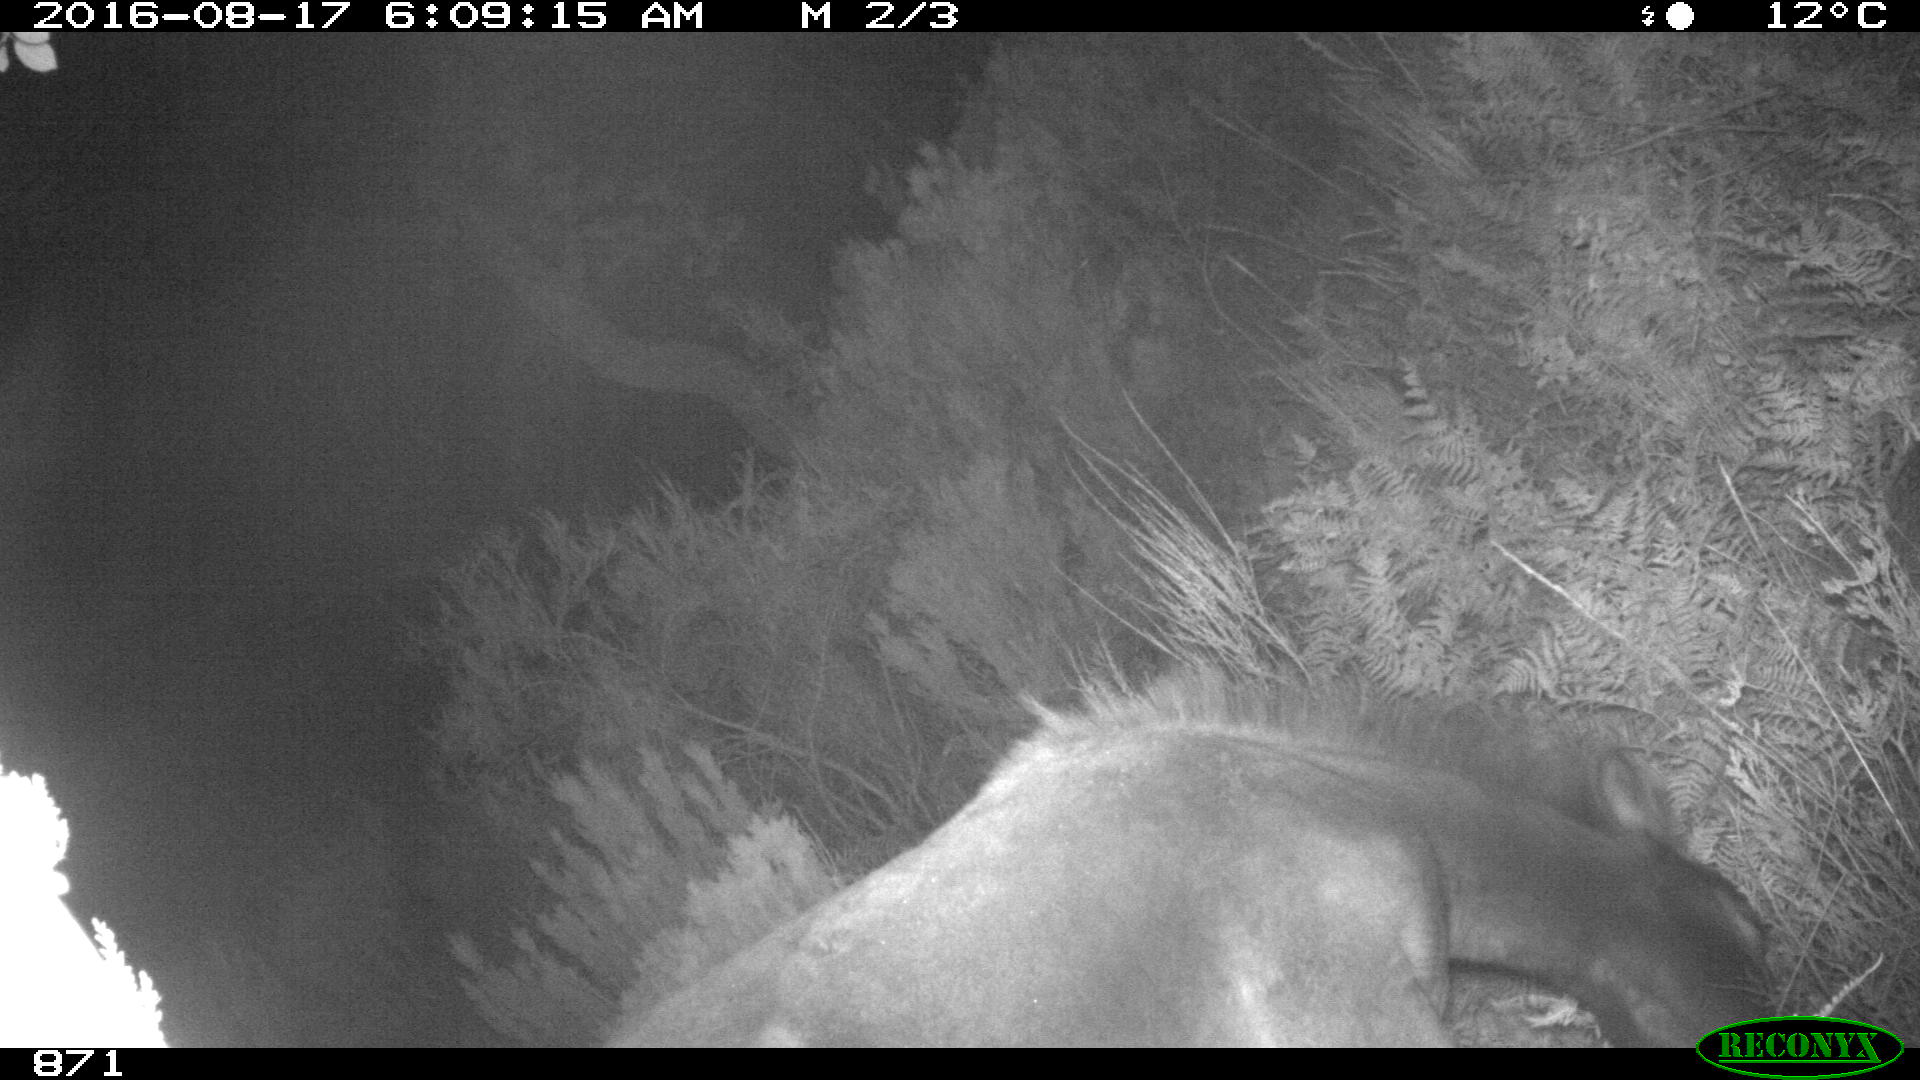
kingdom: Animalia
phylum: Chordata
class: Mammalia
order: Perissodactyla
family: Equidae
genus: Equus
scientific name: Equus caballus
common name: Horse
